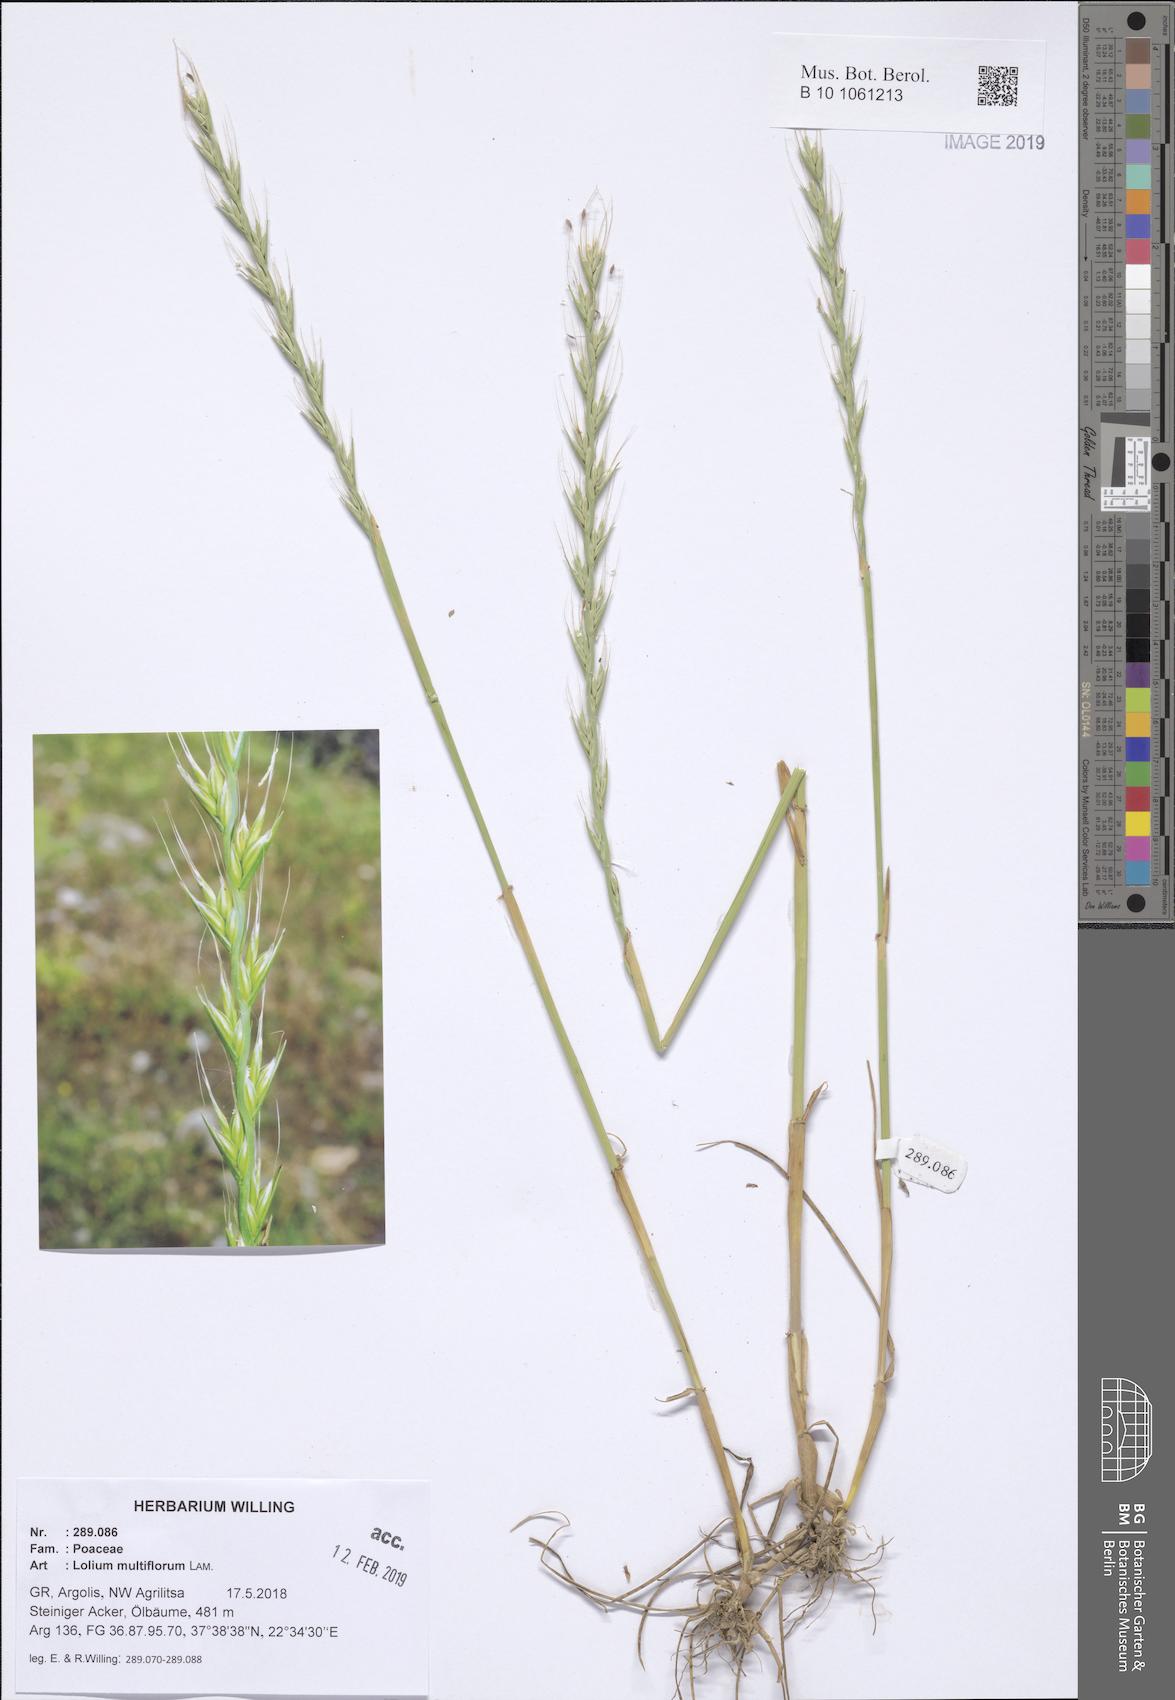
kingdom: Plantae
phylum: Tracheophyta
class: Liliopsida
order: Poales
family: Poaceae
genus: Lolium
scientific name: Lolium multiflorum
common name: Annual ryegrass
